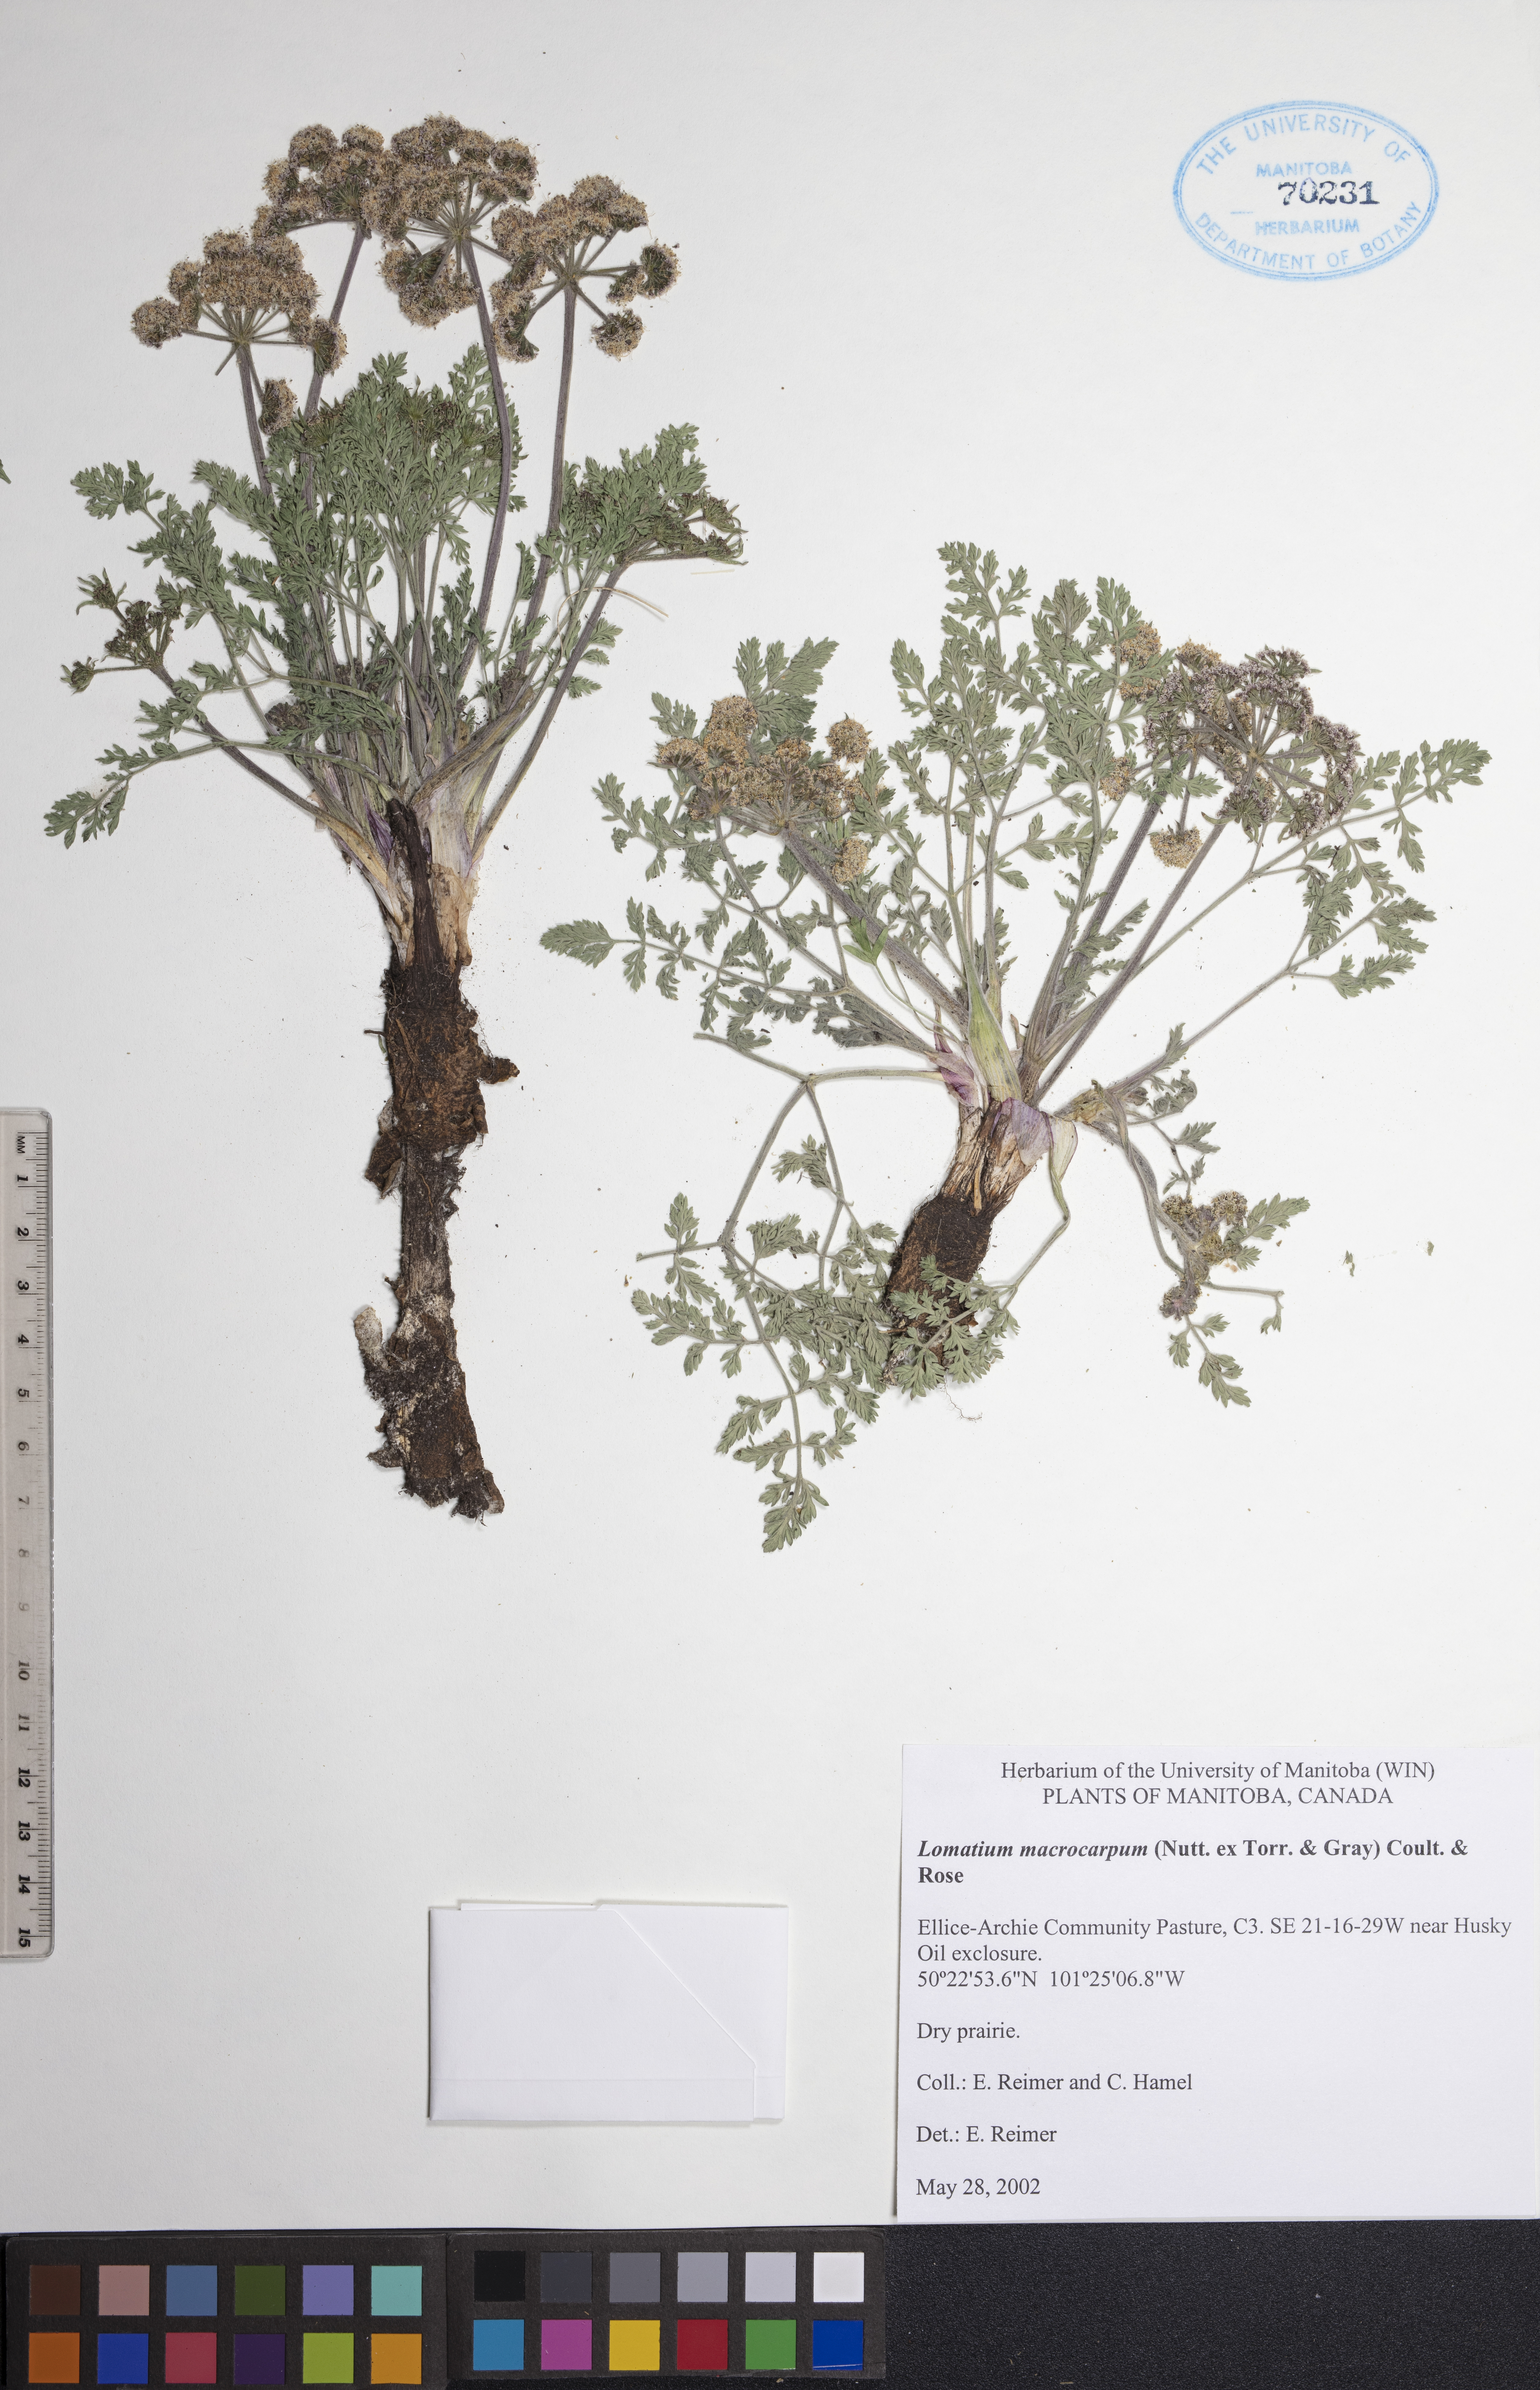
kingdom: Plantae
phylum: Tracheophyta
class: Magnoliopsida
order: Apiales
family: Apiaceae
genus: Lomatium
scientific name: Lomatium macrocarpum
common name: Big-seed biscuitroot
